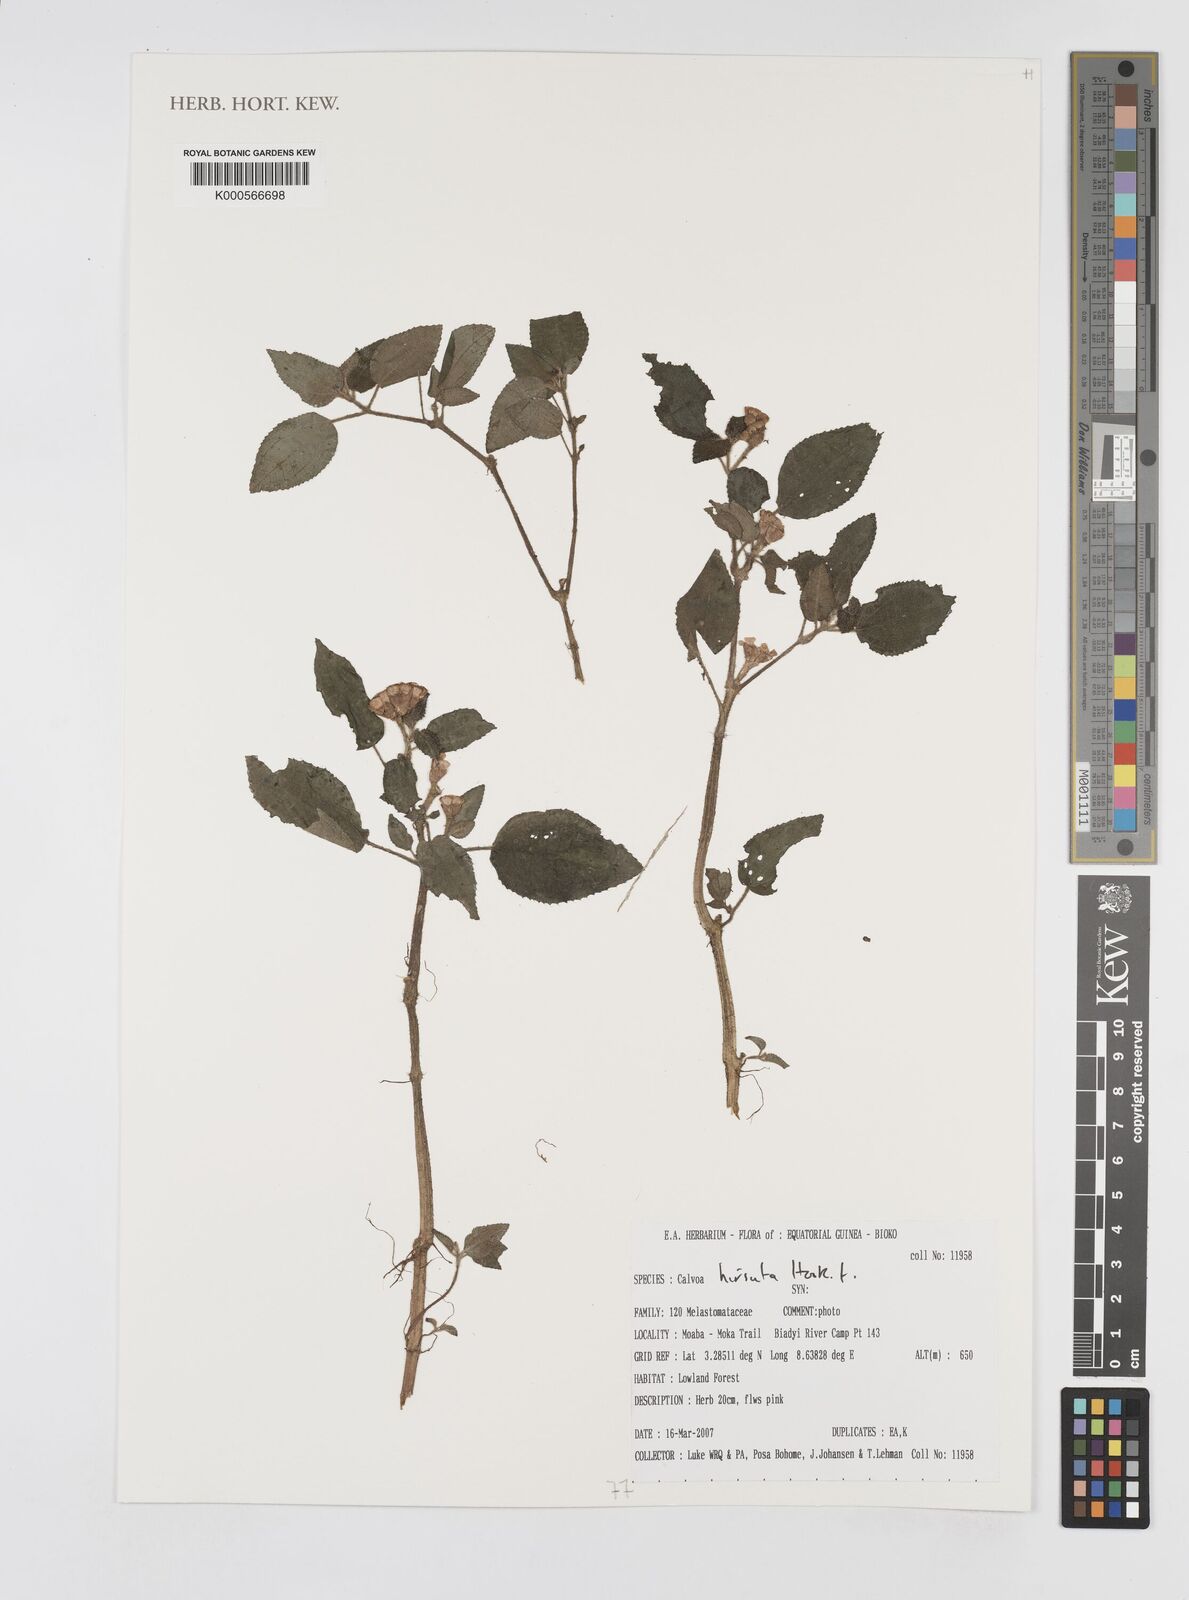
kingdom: Plantae
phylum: Tracheophyta
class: Magnoliopsida
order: Myrtales
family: Melastomataceae
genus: Calvoa
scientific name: Calvoa
